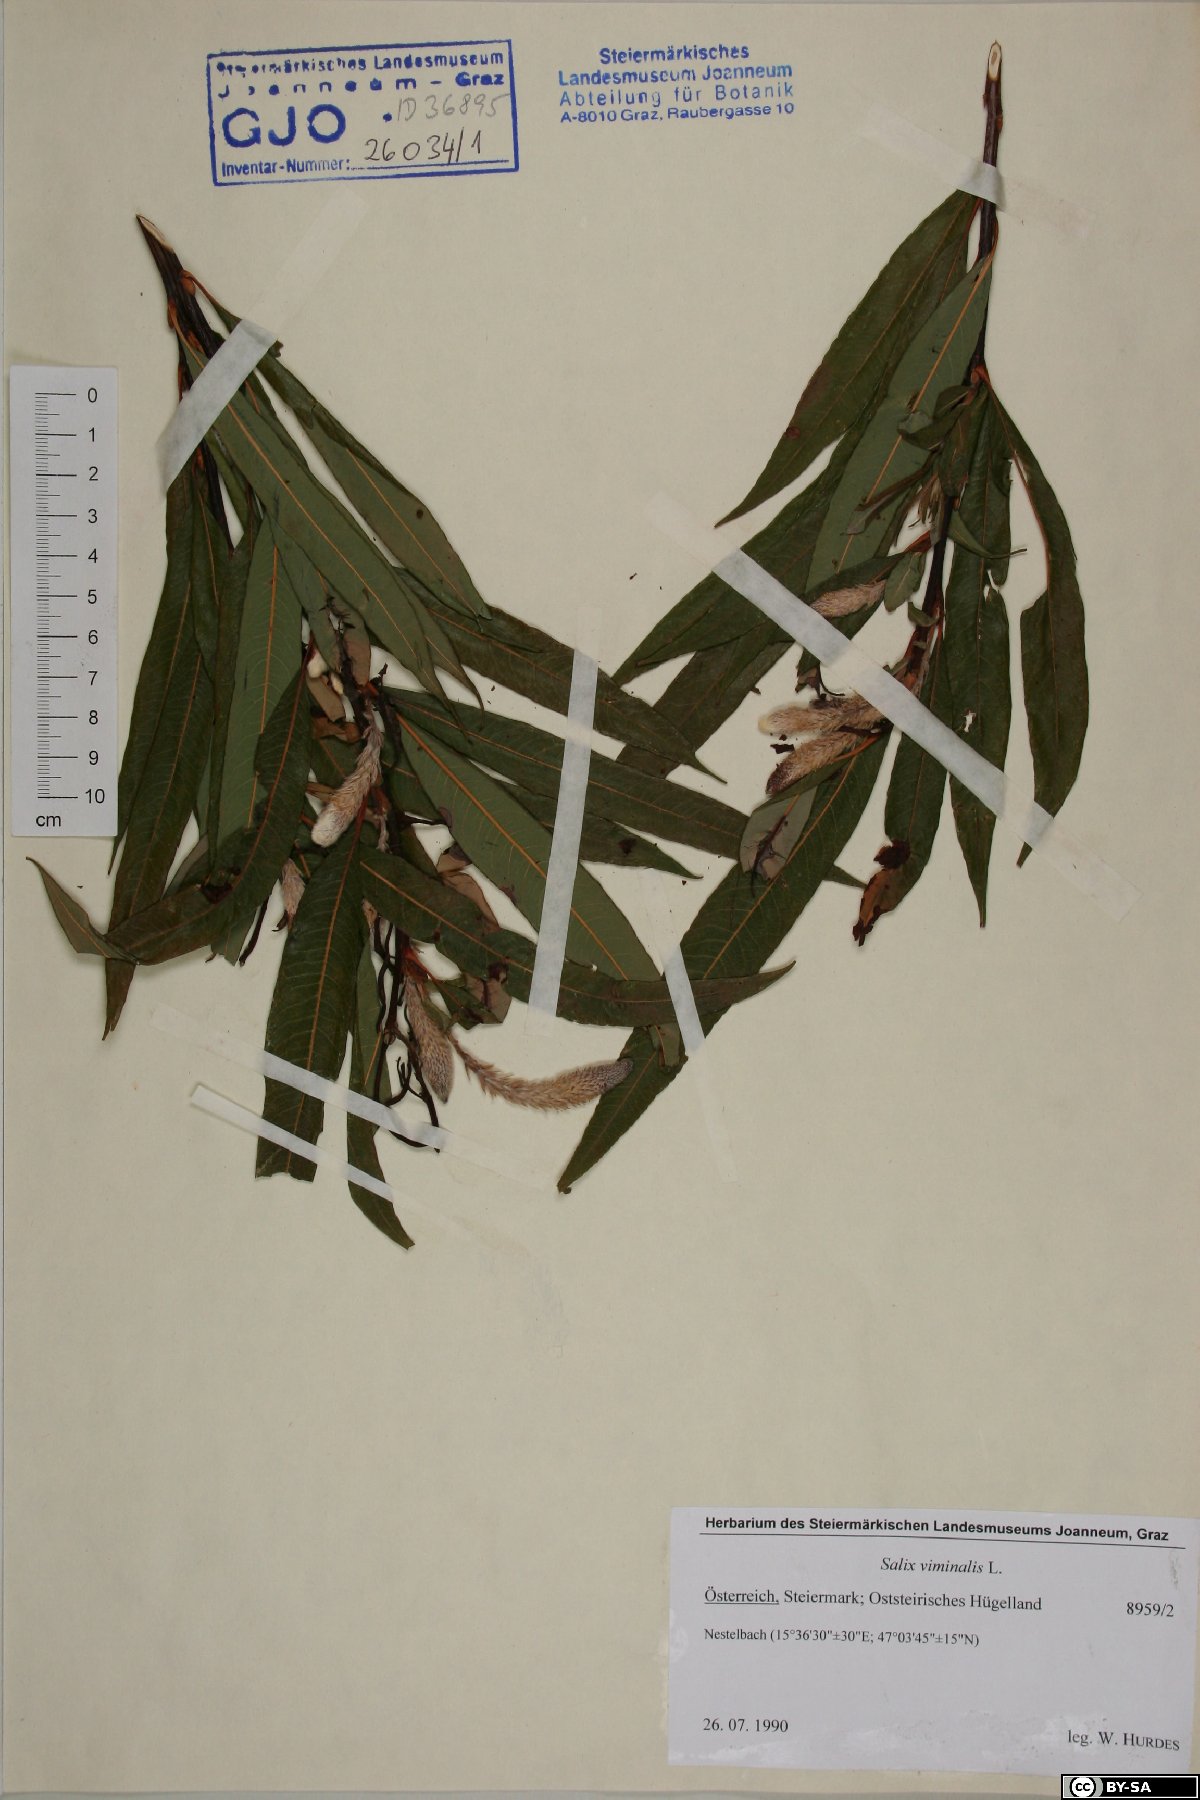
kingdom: Plantae
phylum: Tracheophyta
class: Magnoliopsida
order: Malpighiales
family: Salicaceae
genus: Salix
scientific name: Salix viminalis
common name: Osier
